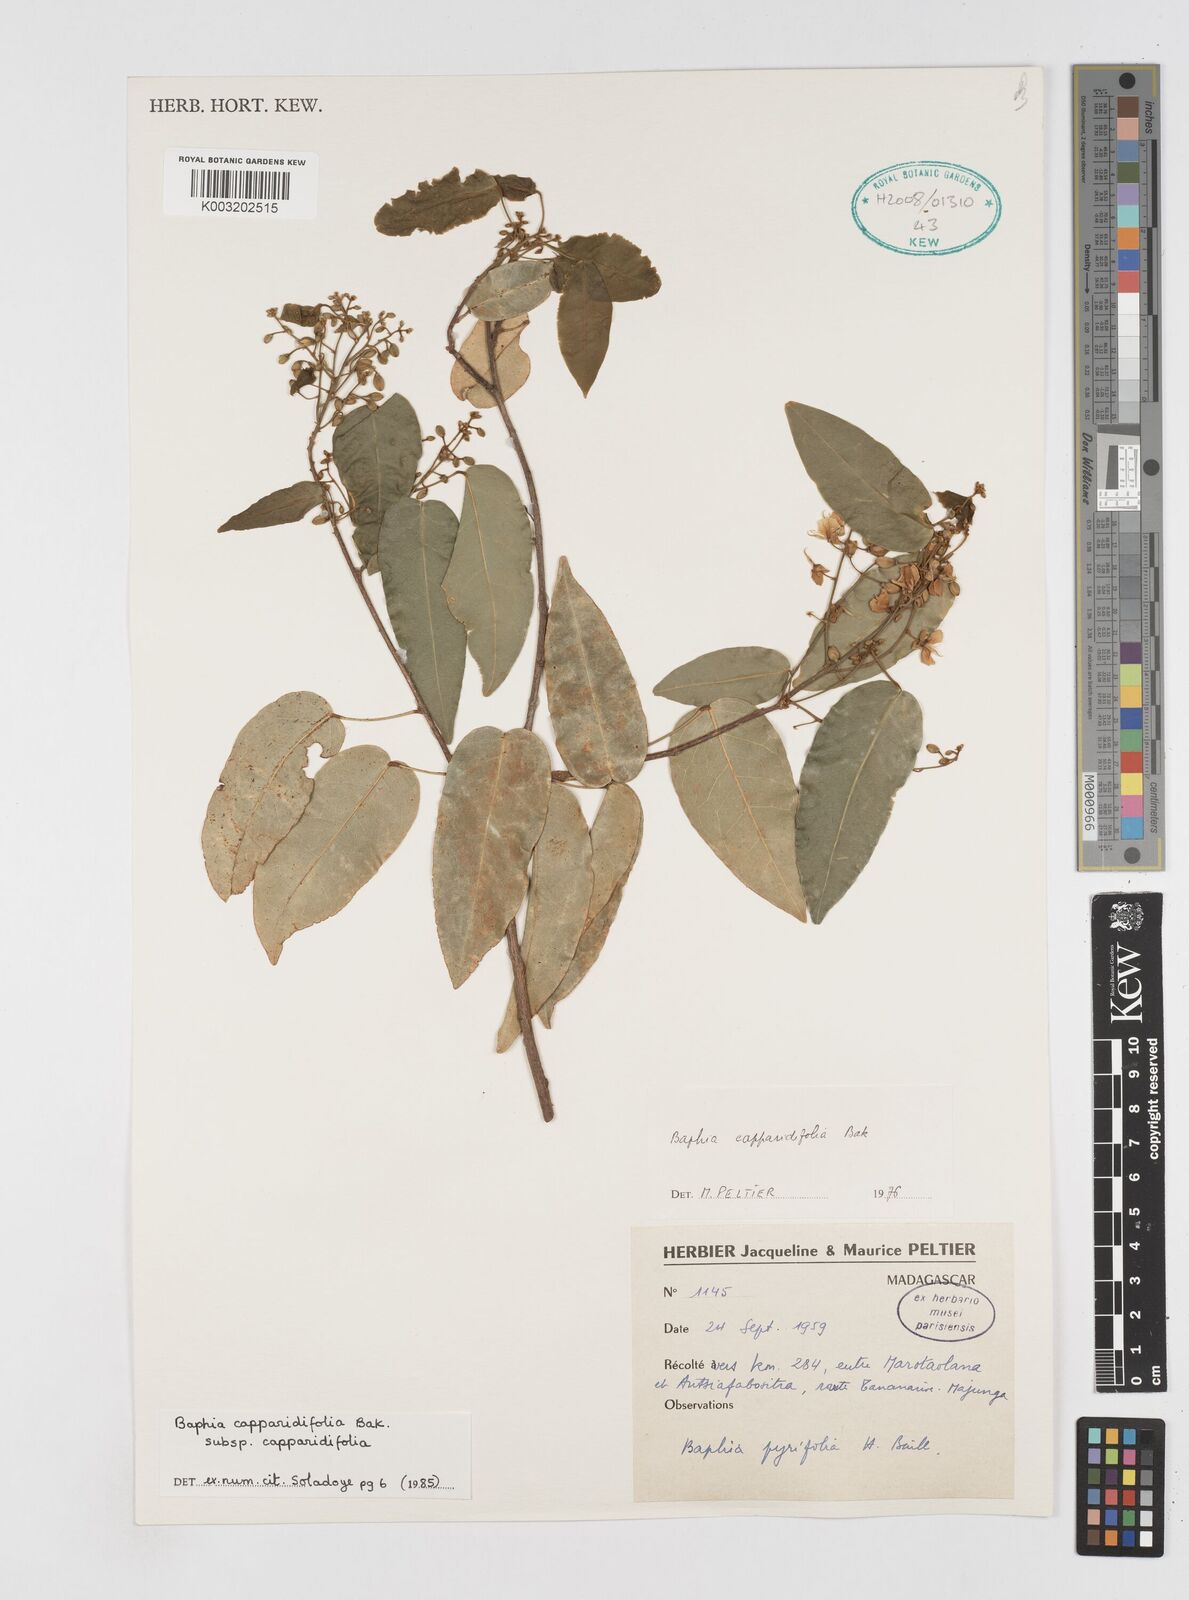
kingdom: Plantae
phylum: Tracheophyta
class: Magnoliopsida
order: Fabales
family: Fabaceae
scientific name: Fabaceae
